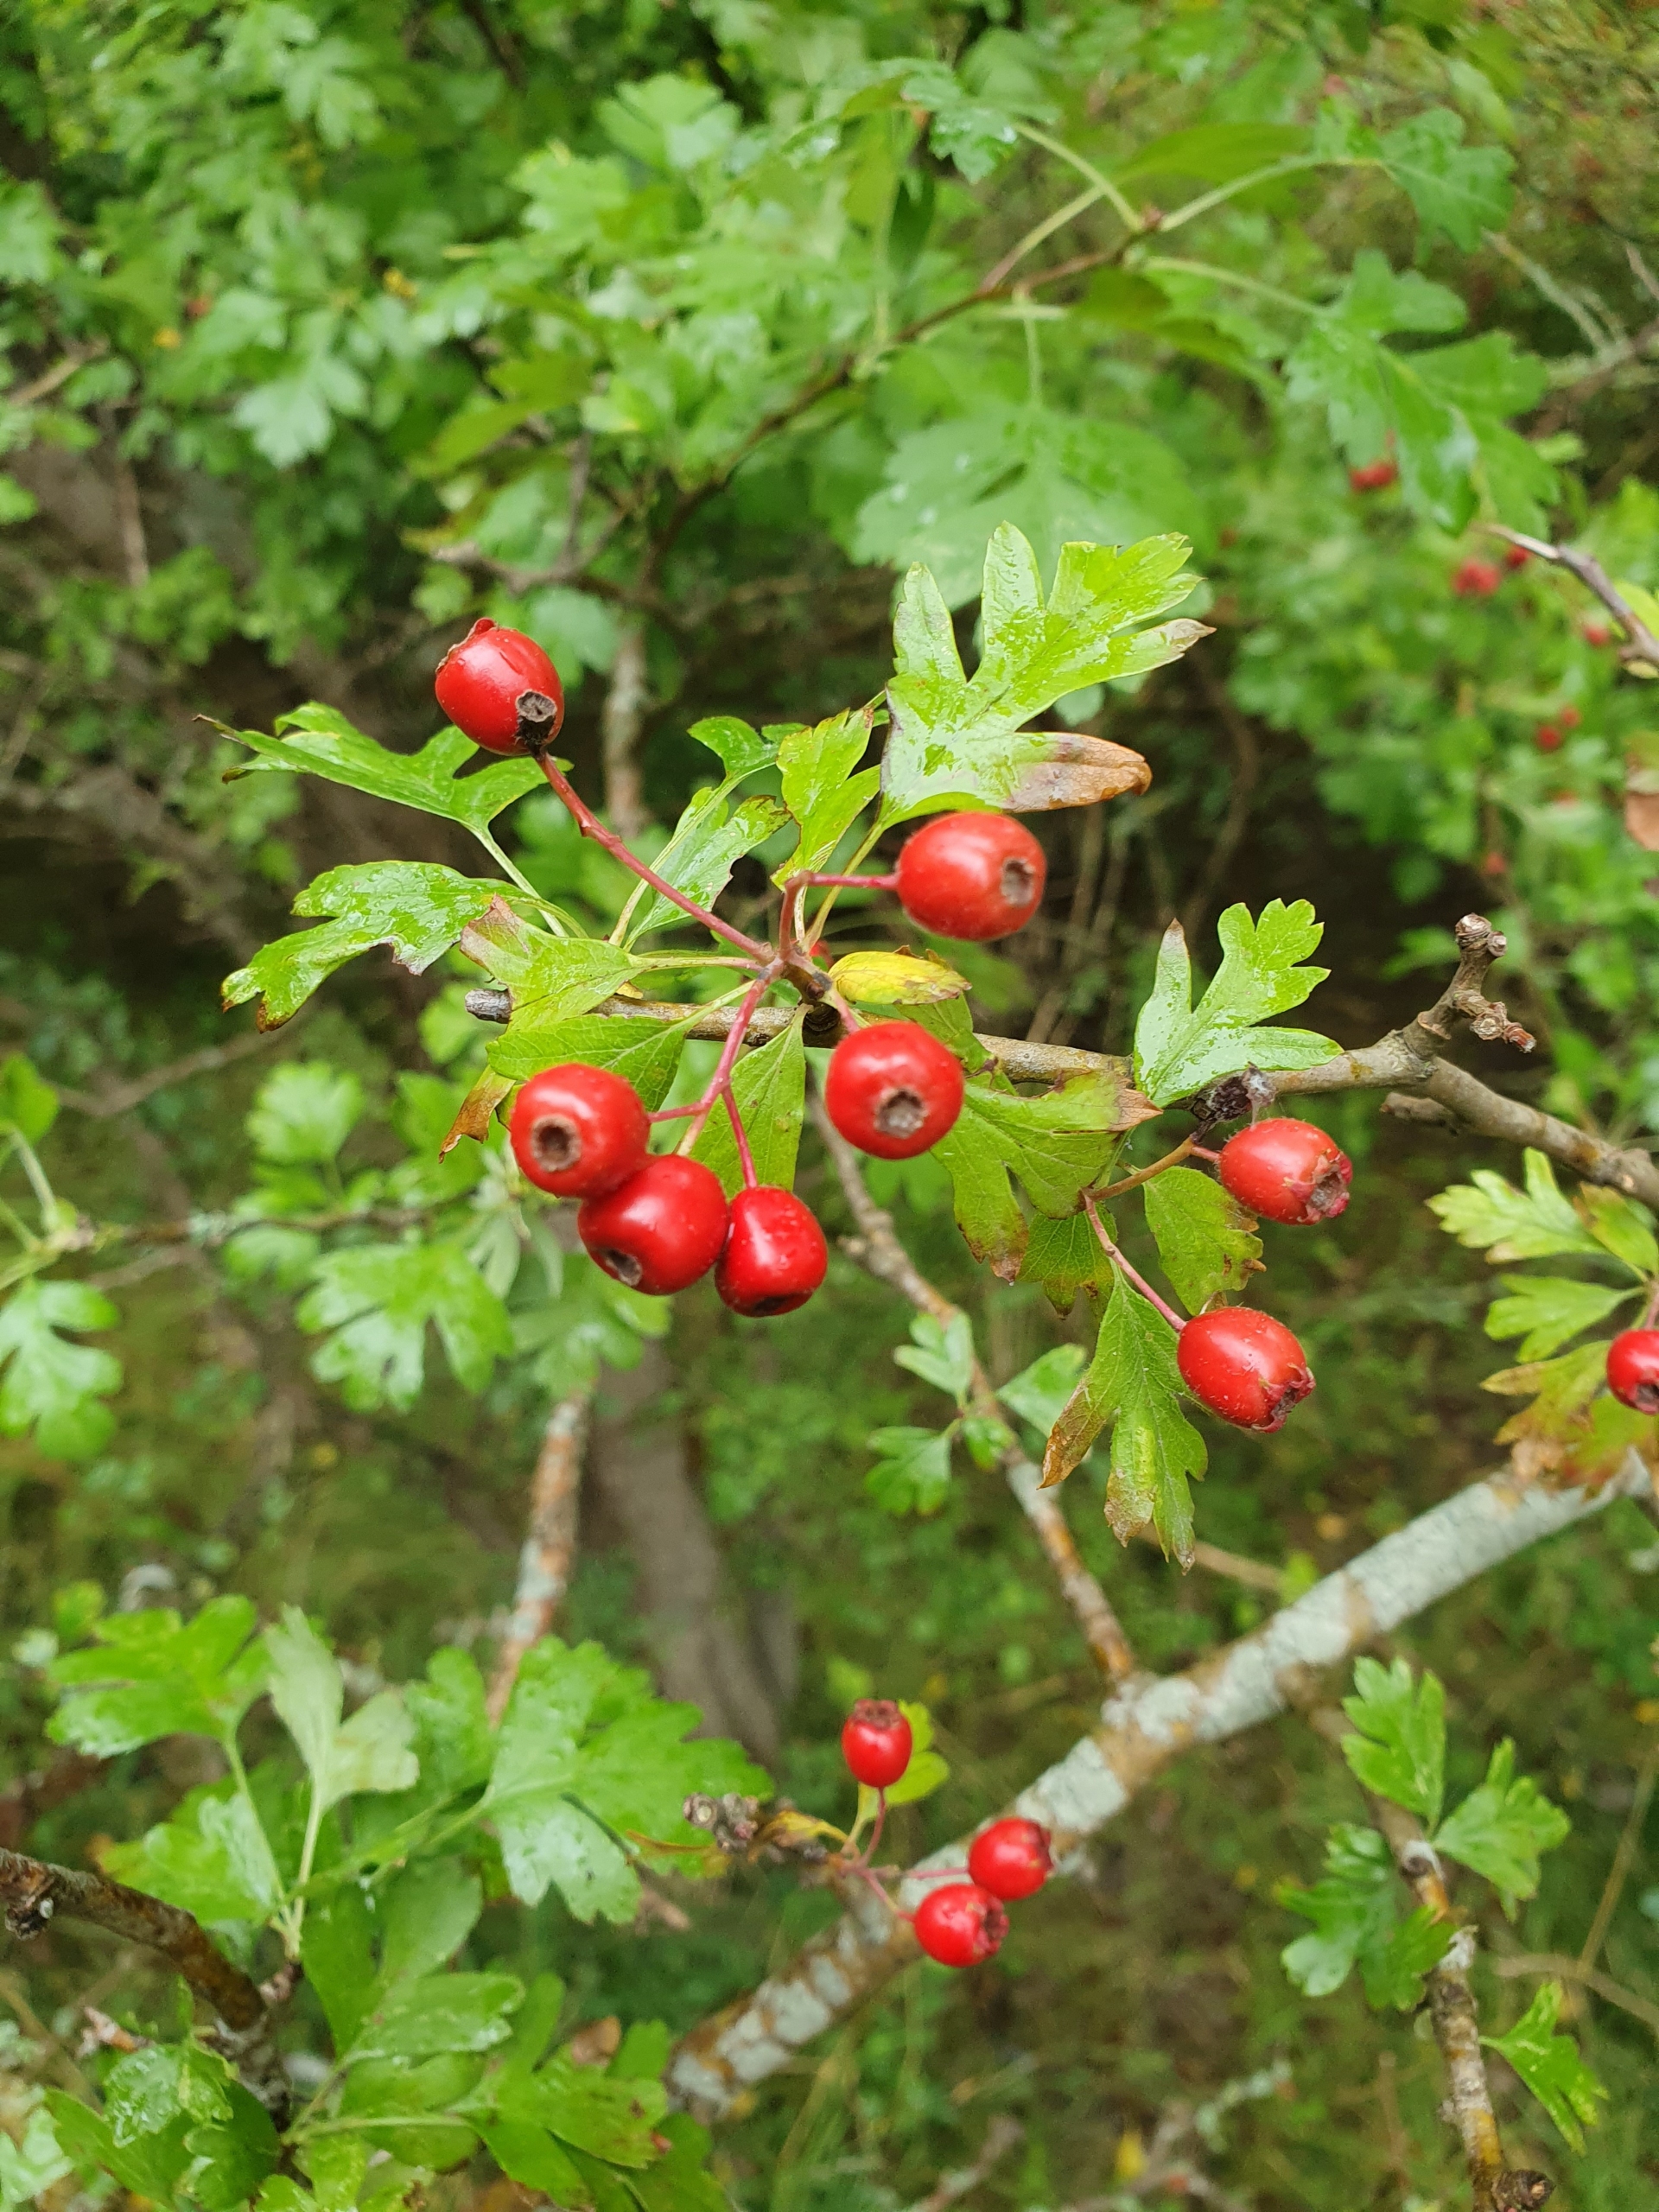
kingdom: Plantae
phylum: Tracheophyta
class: Magnoliopsida
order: Rosales
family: Rosaceae
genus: Crataegus
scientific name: Crataegus monogyna
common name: Engriflet hvidtjørn
